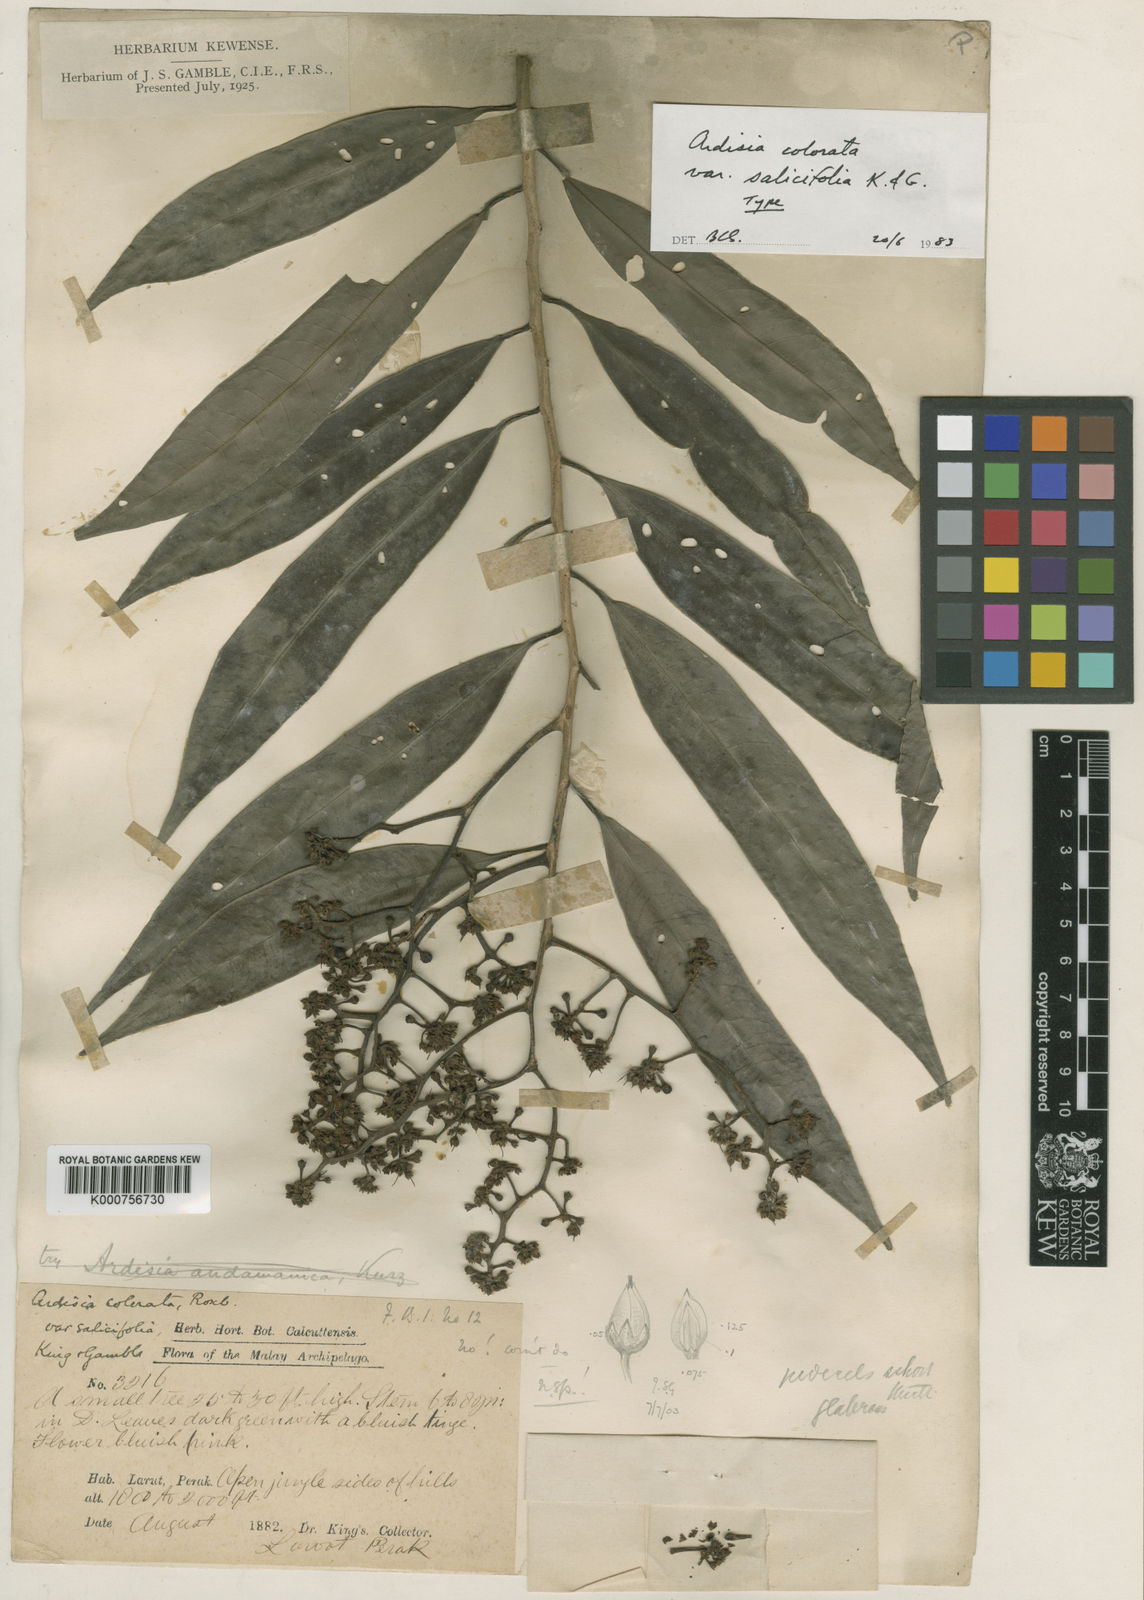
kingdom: Plantae
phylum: Tracheophyta
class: Magnoliopsida
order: Ericales
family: Primulaceae
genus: Ardisia
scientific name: Ardisia complanata
